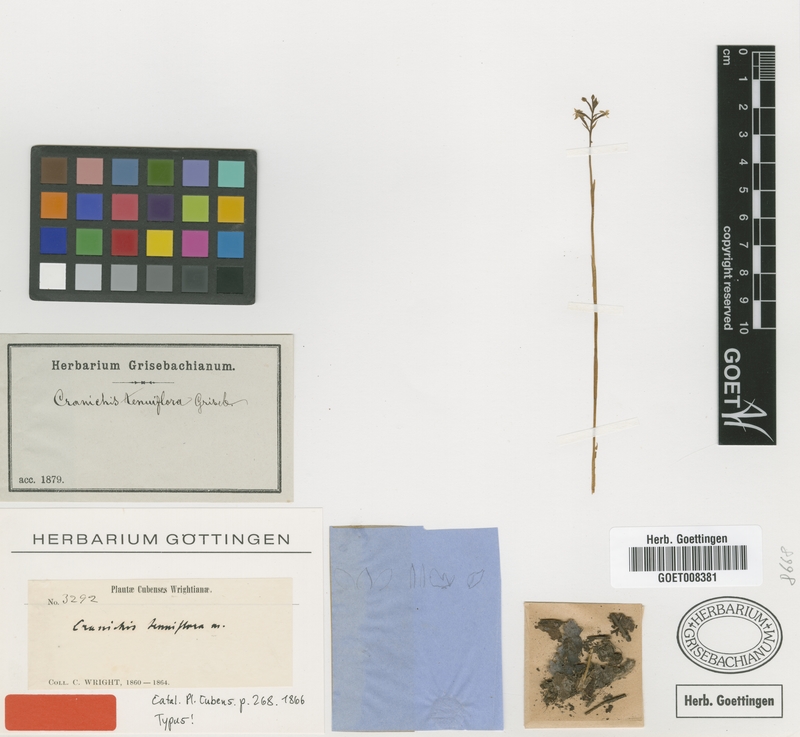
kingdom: Plantae
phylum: Tracheophyta
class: Liliopsida
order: Asparagales
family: Orchidaceae
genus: Cranichis
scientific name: Cranichis tenuiflora
